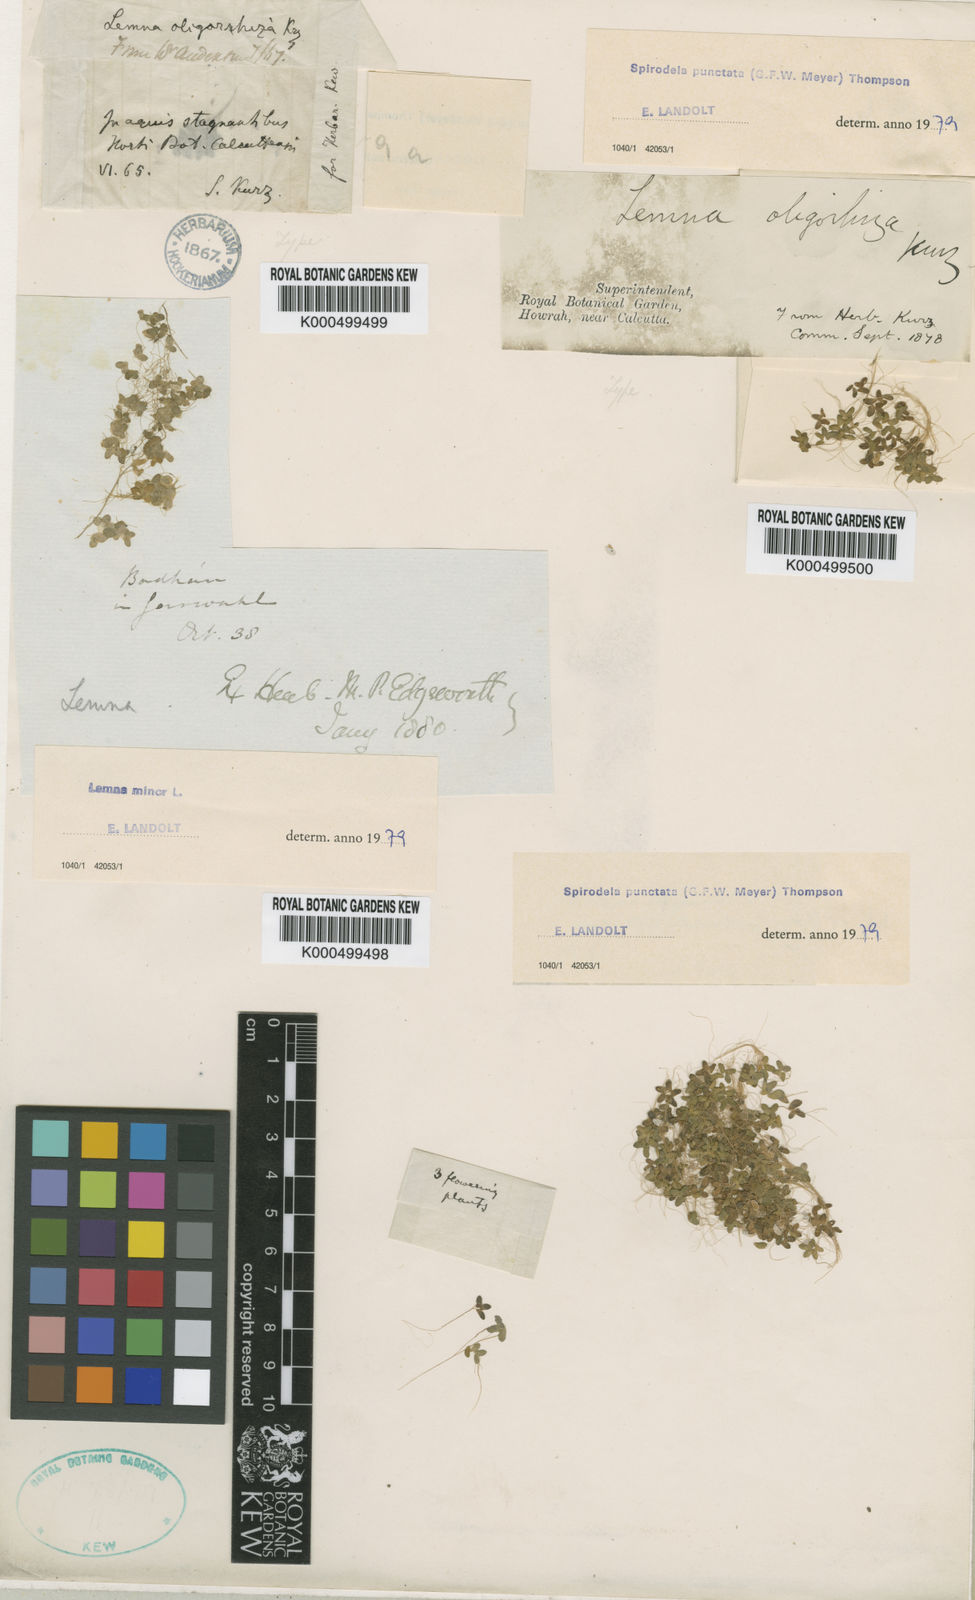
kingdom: Plantae
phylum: Tracheophyta
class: Liliopsida
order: Alismatales
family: Araceae
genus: Lemna
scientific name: Lemna aequinoctialis
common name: Duckweed
